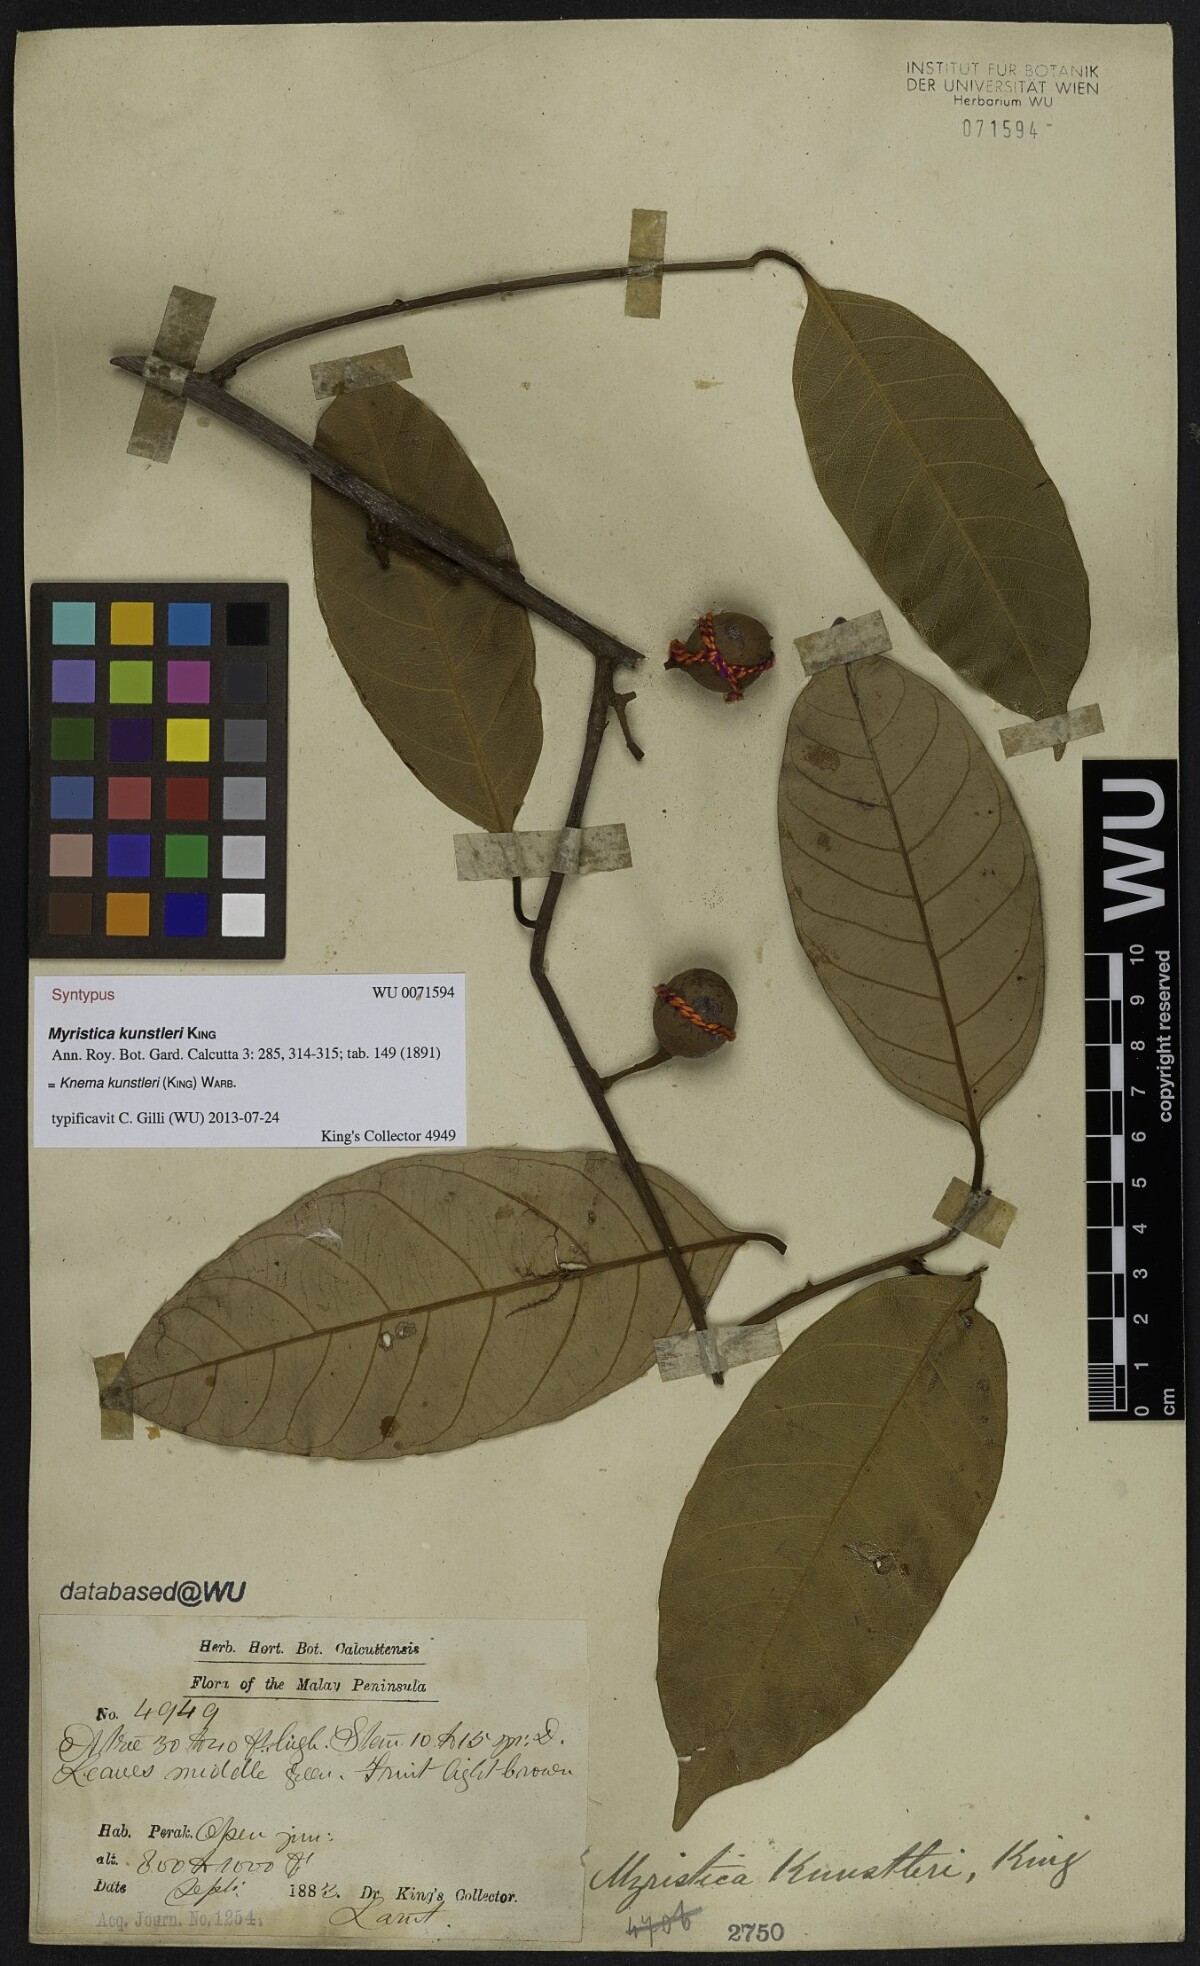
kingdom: Plantae
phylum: Tracheophyta
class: Magnoliopsida
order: Magnoliales
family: Myristicaceae
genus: Knema
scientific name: Knema kunstleri
